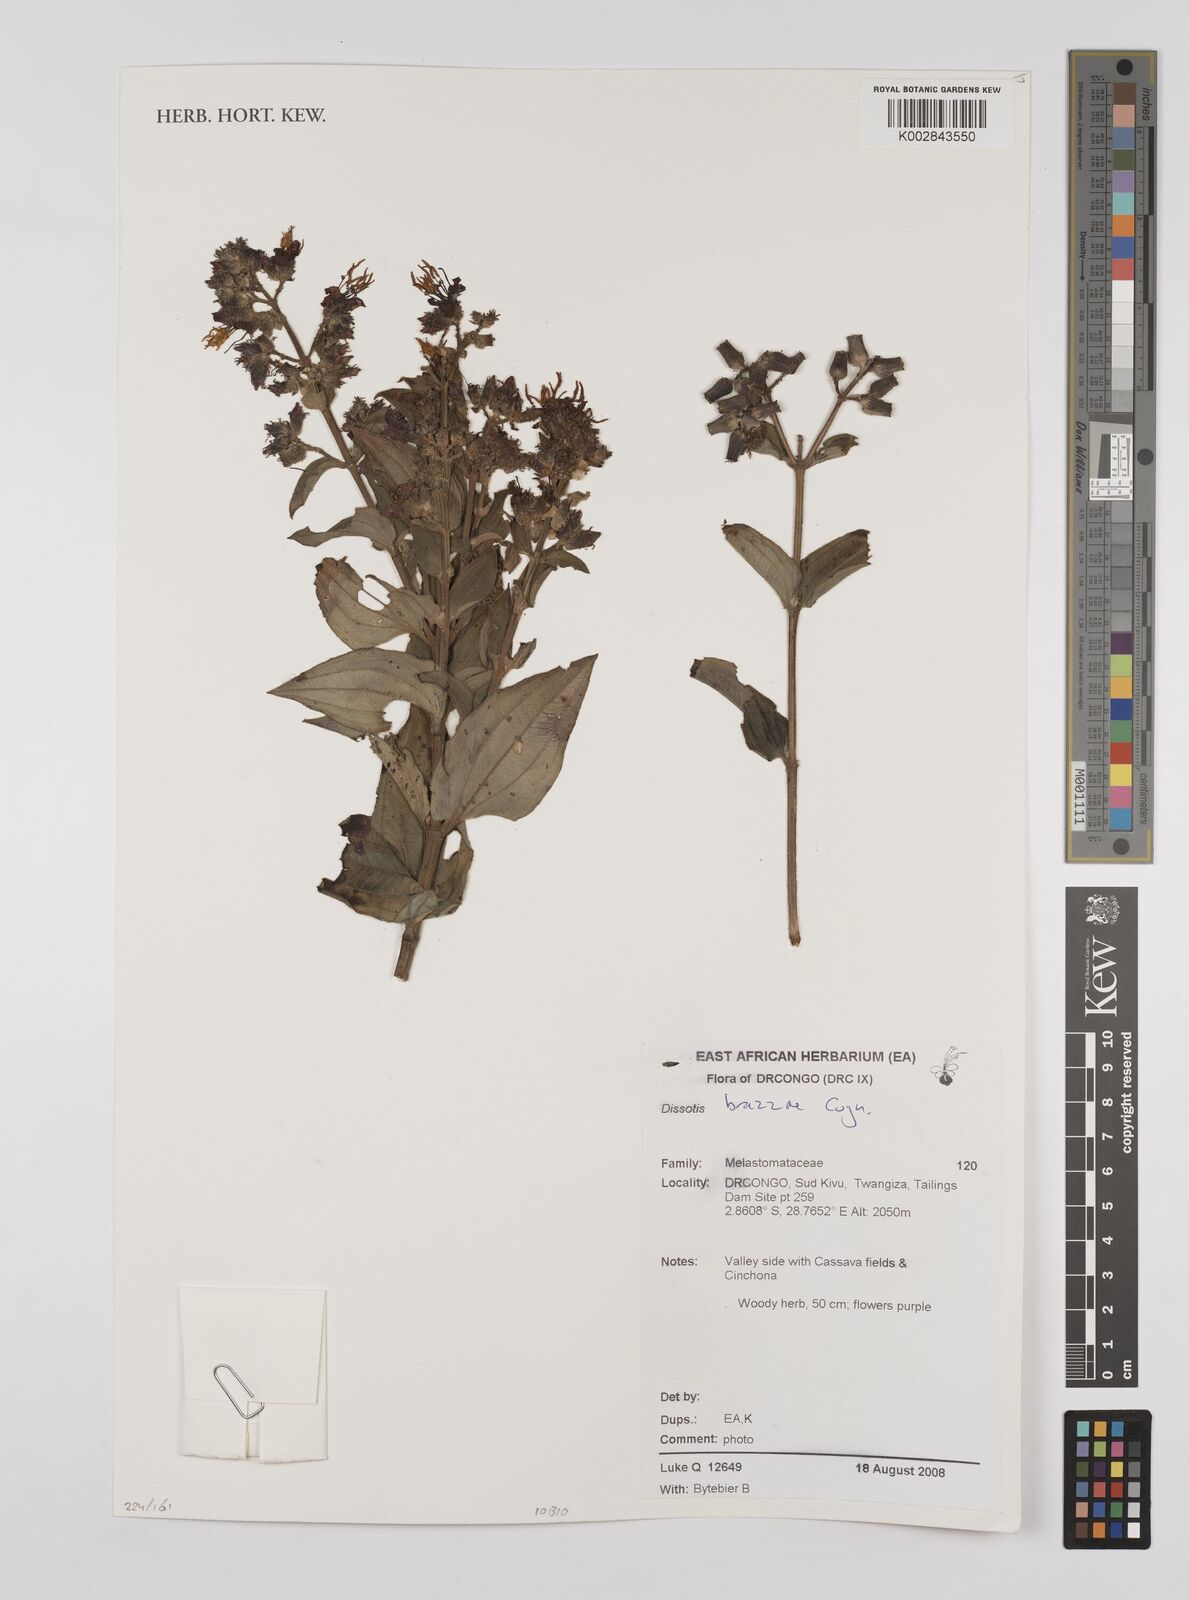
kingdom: Plantae
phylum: Tracheophyta
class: Magnoliopsida
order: Myrtales
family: Melastomataceae
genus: Dupineta
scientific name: Dupineta brazzae
